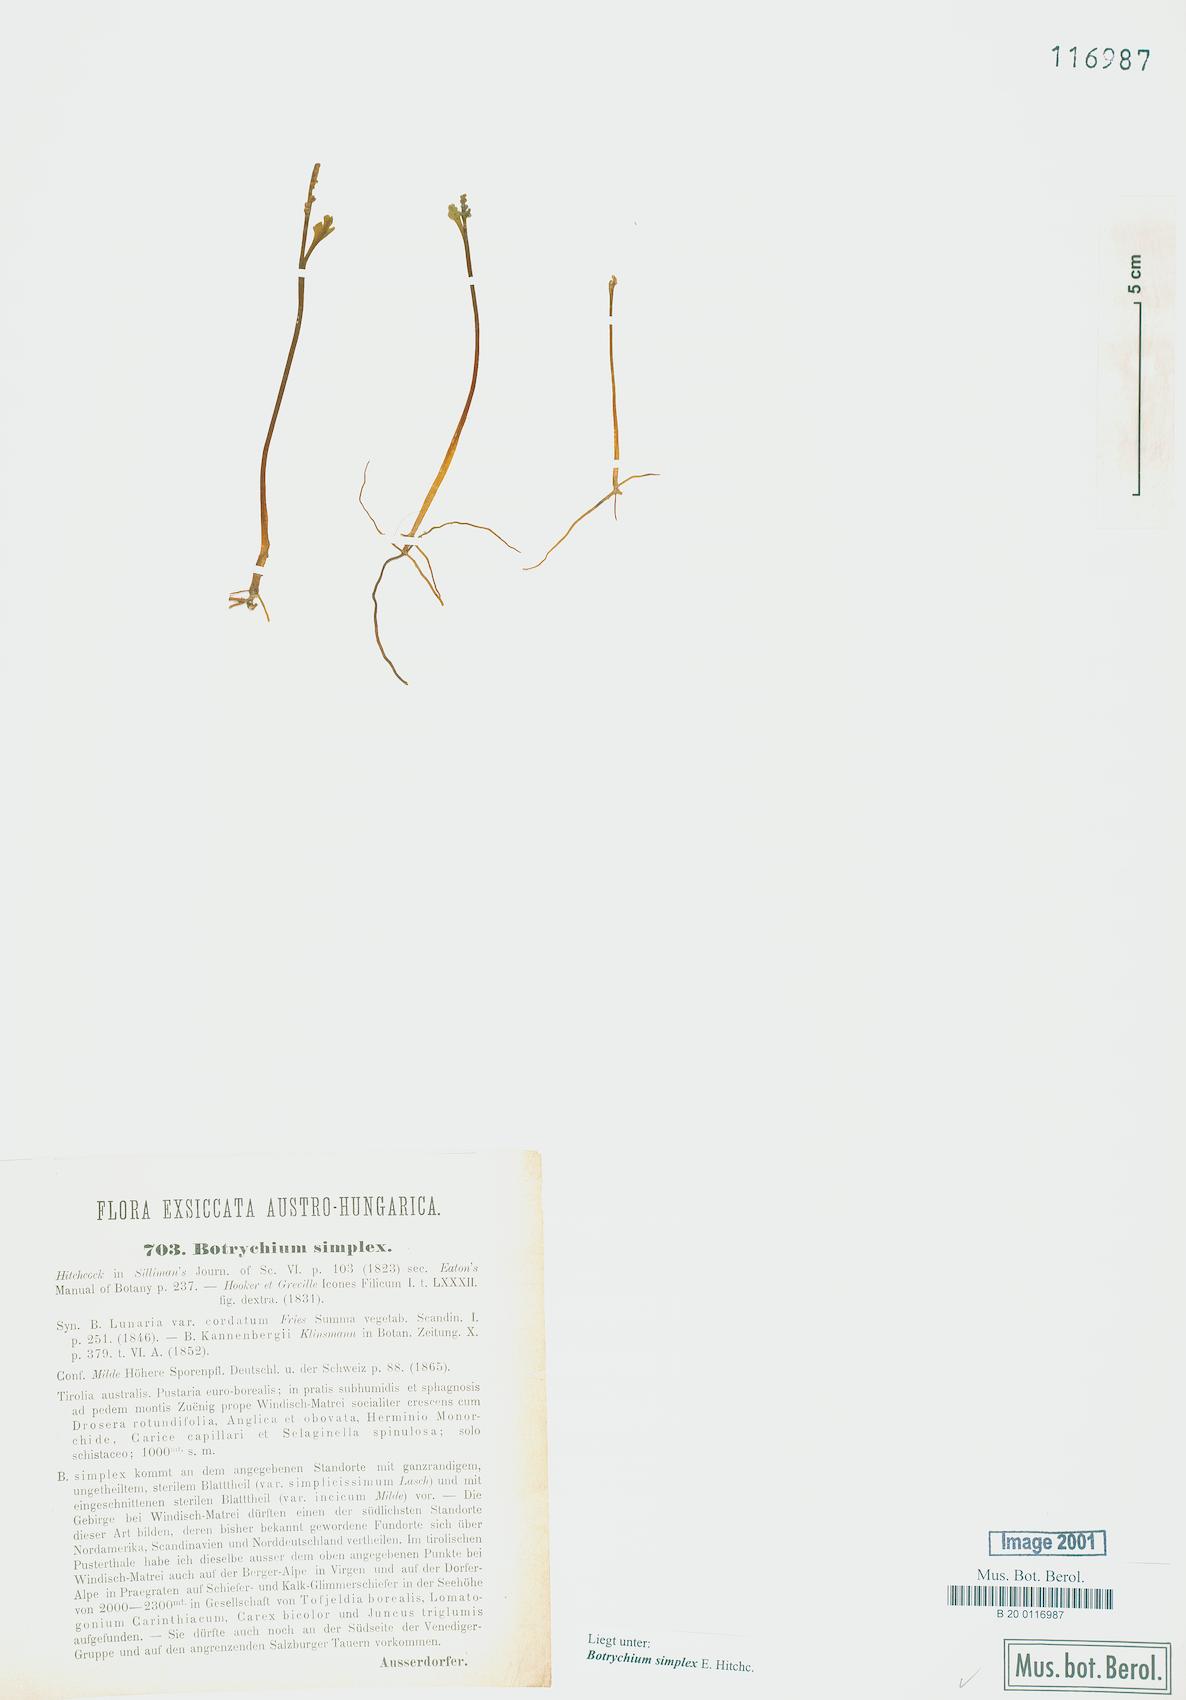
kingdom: Plantae
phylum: Tracheophyta
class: Polypodiopsida
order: Ophioglossales
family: Ophioglossaceae
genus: Botrychium
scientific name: Botrychium simplex
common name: Least moonwort
